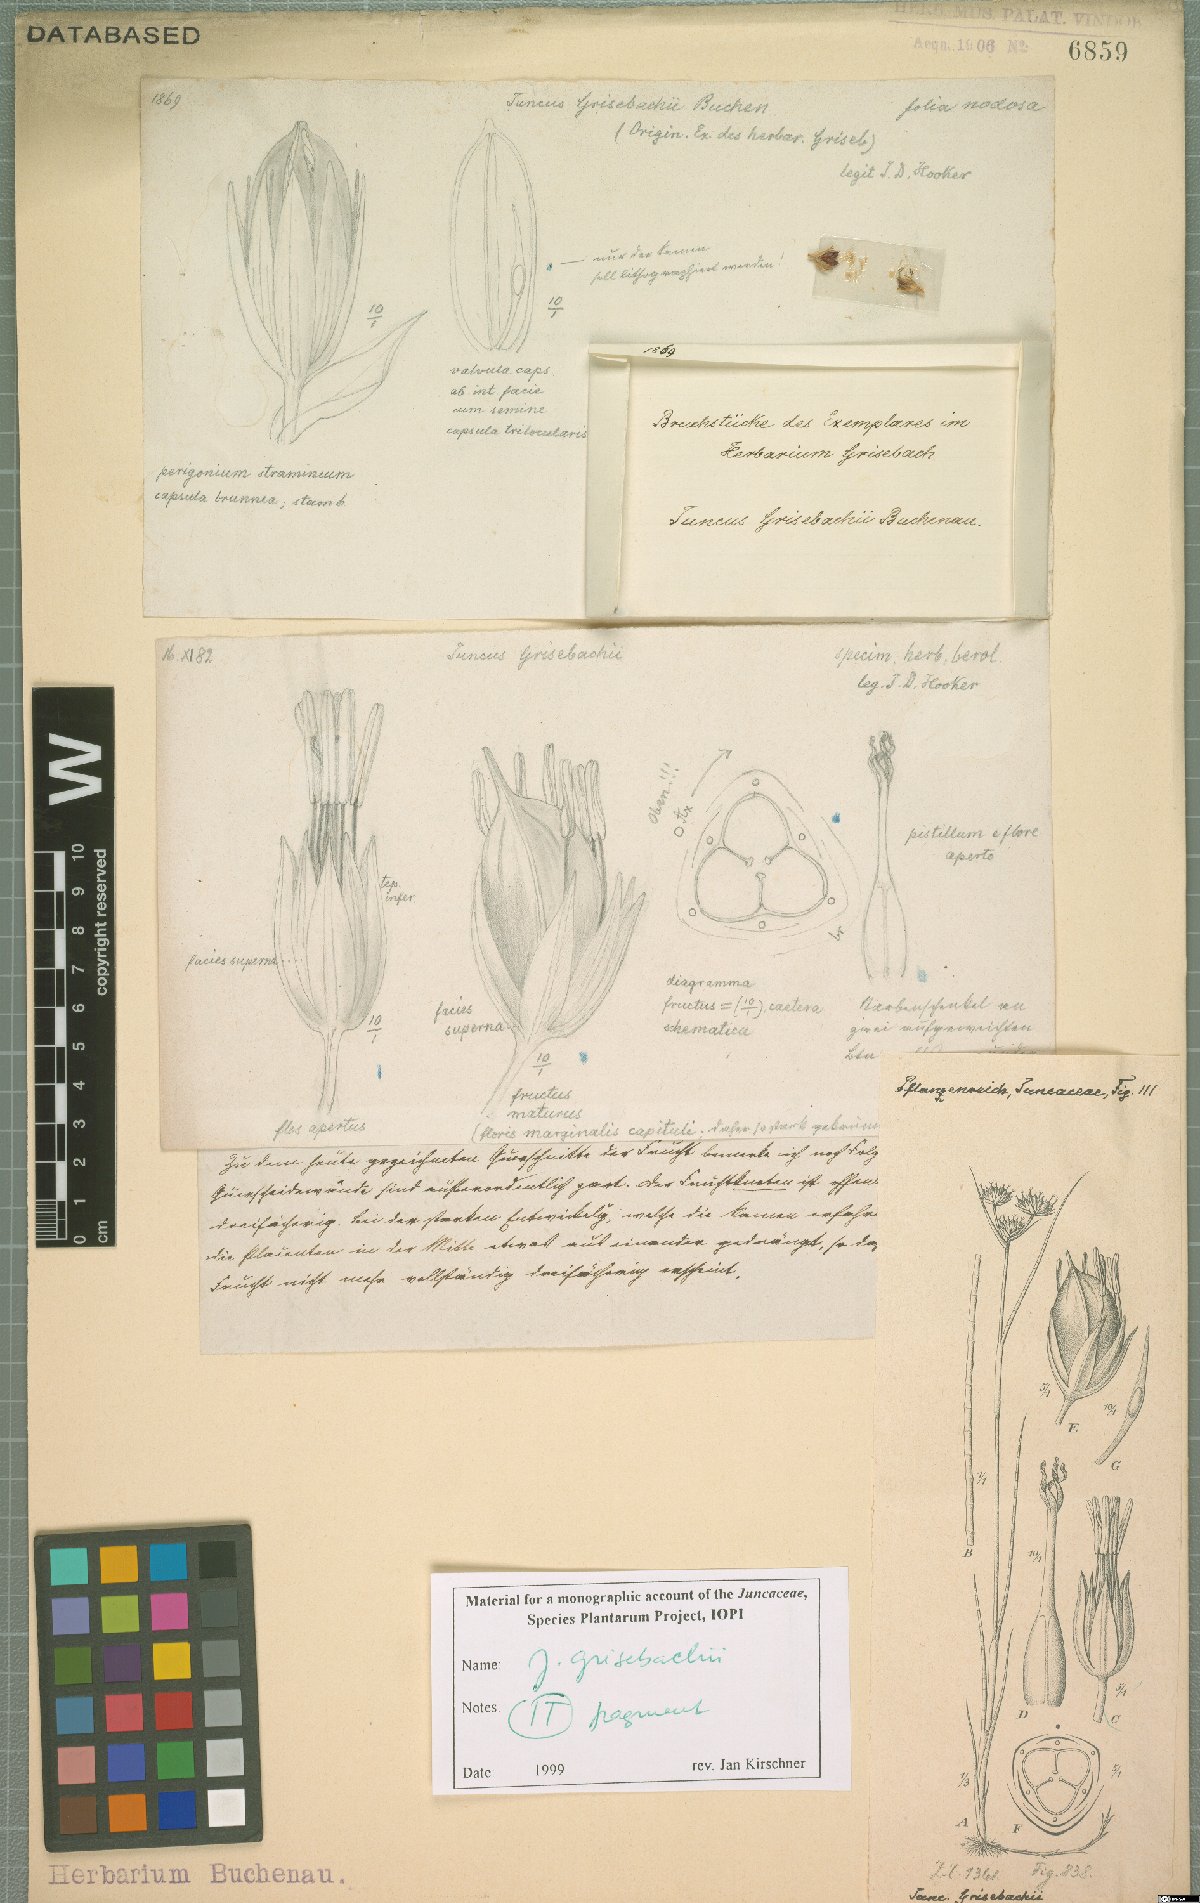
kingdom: Plantae
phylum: Tracheophyta
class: Liliopsida
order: Poales
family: Juncaceae
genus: Juncus
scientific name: Juncus grisebachii
